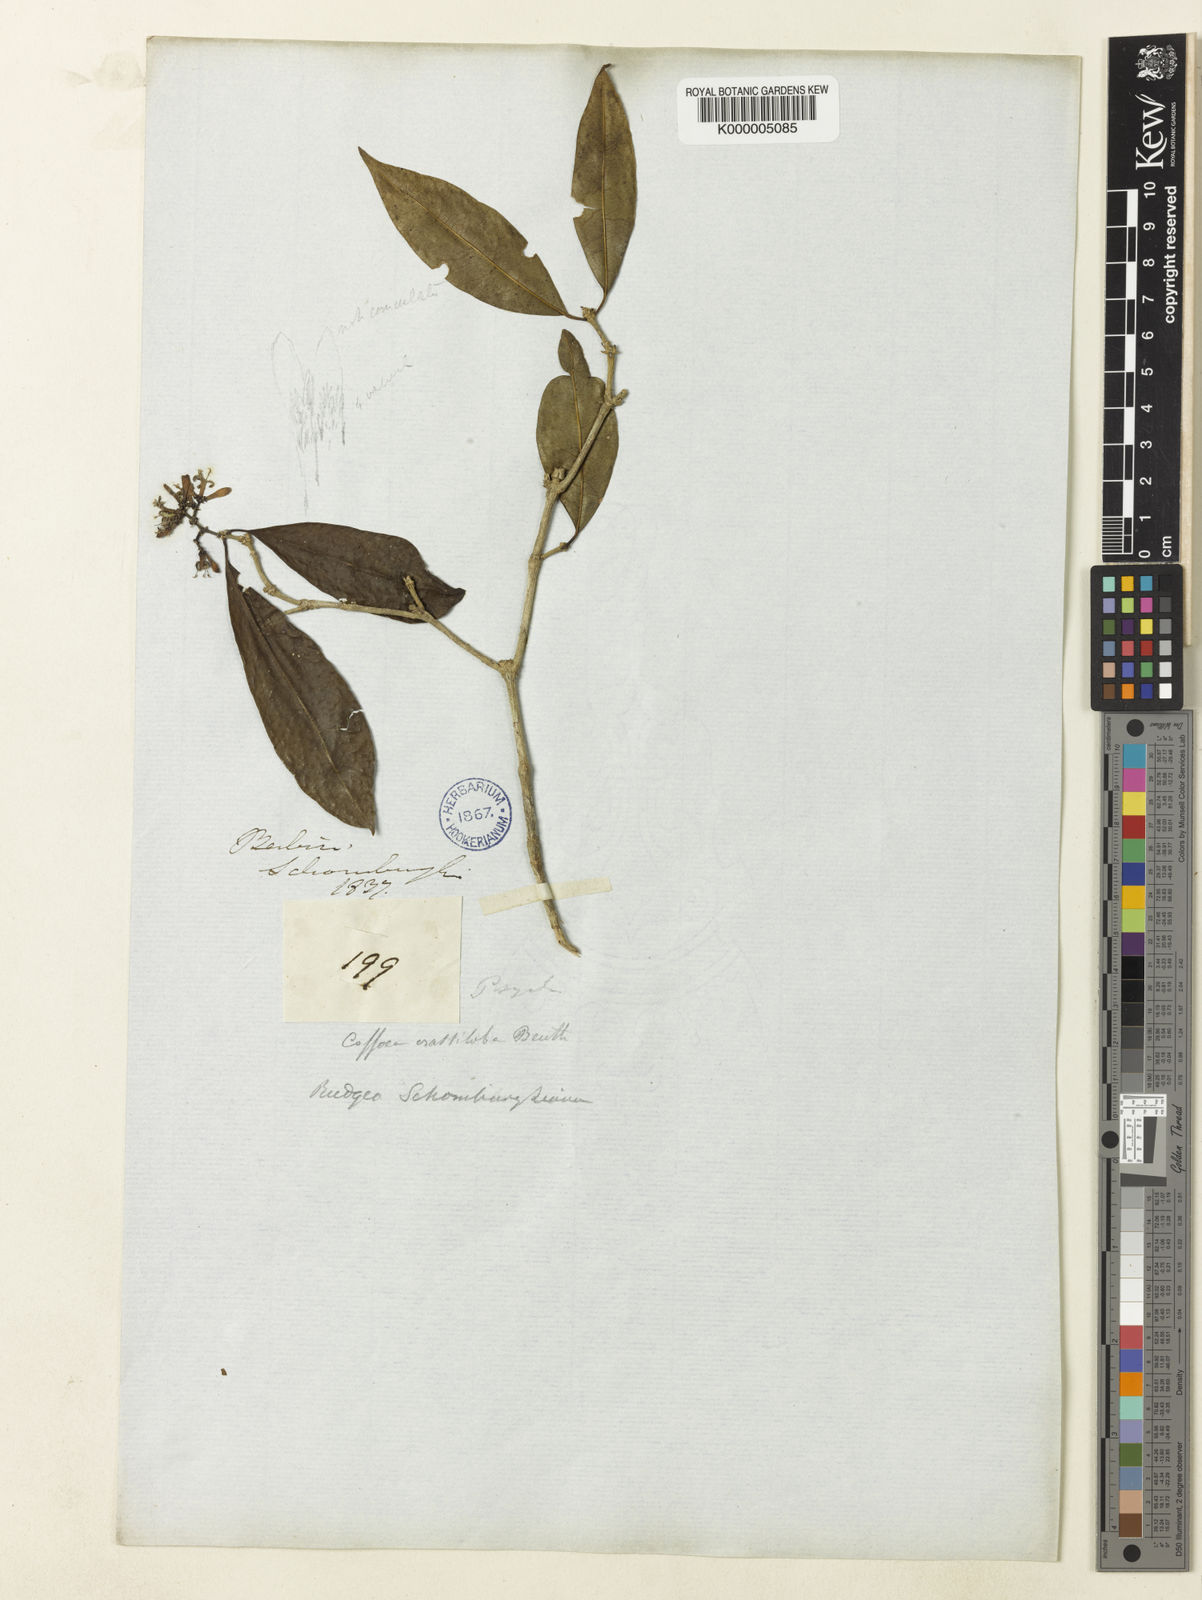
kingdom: Plantae
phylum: Tracheophyta
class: Magnoliopsida
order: Gentianales
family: Rubiaceae
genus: Rudgea
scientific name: Rudgea crassiloba
